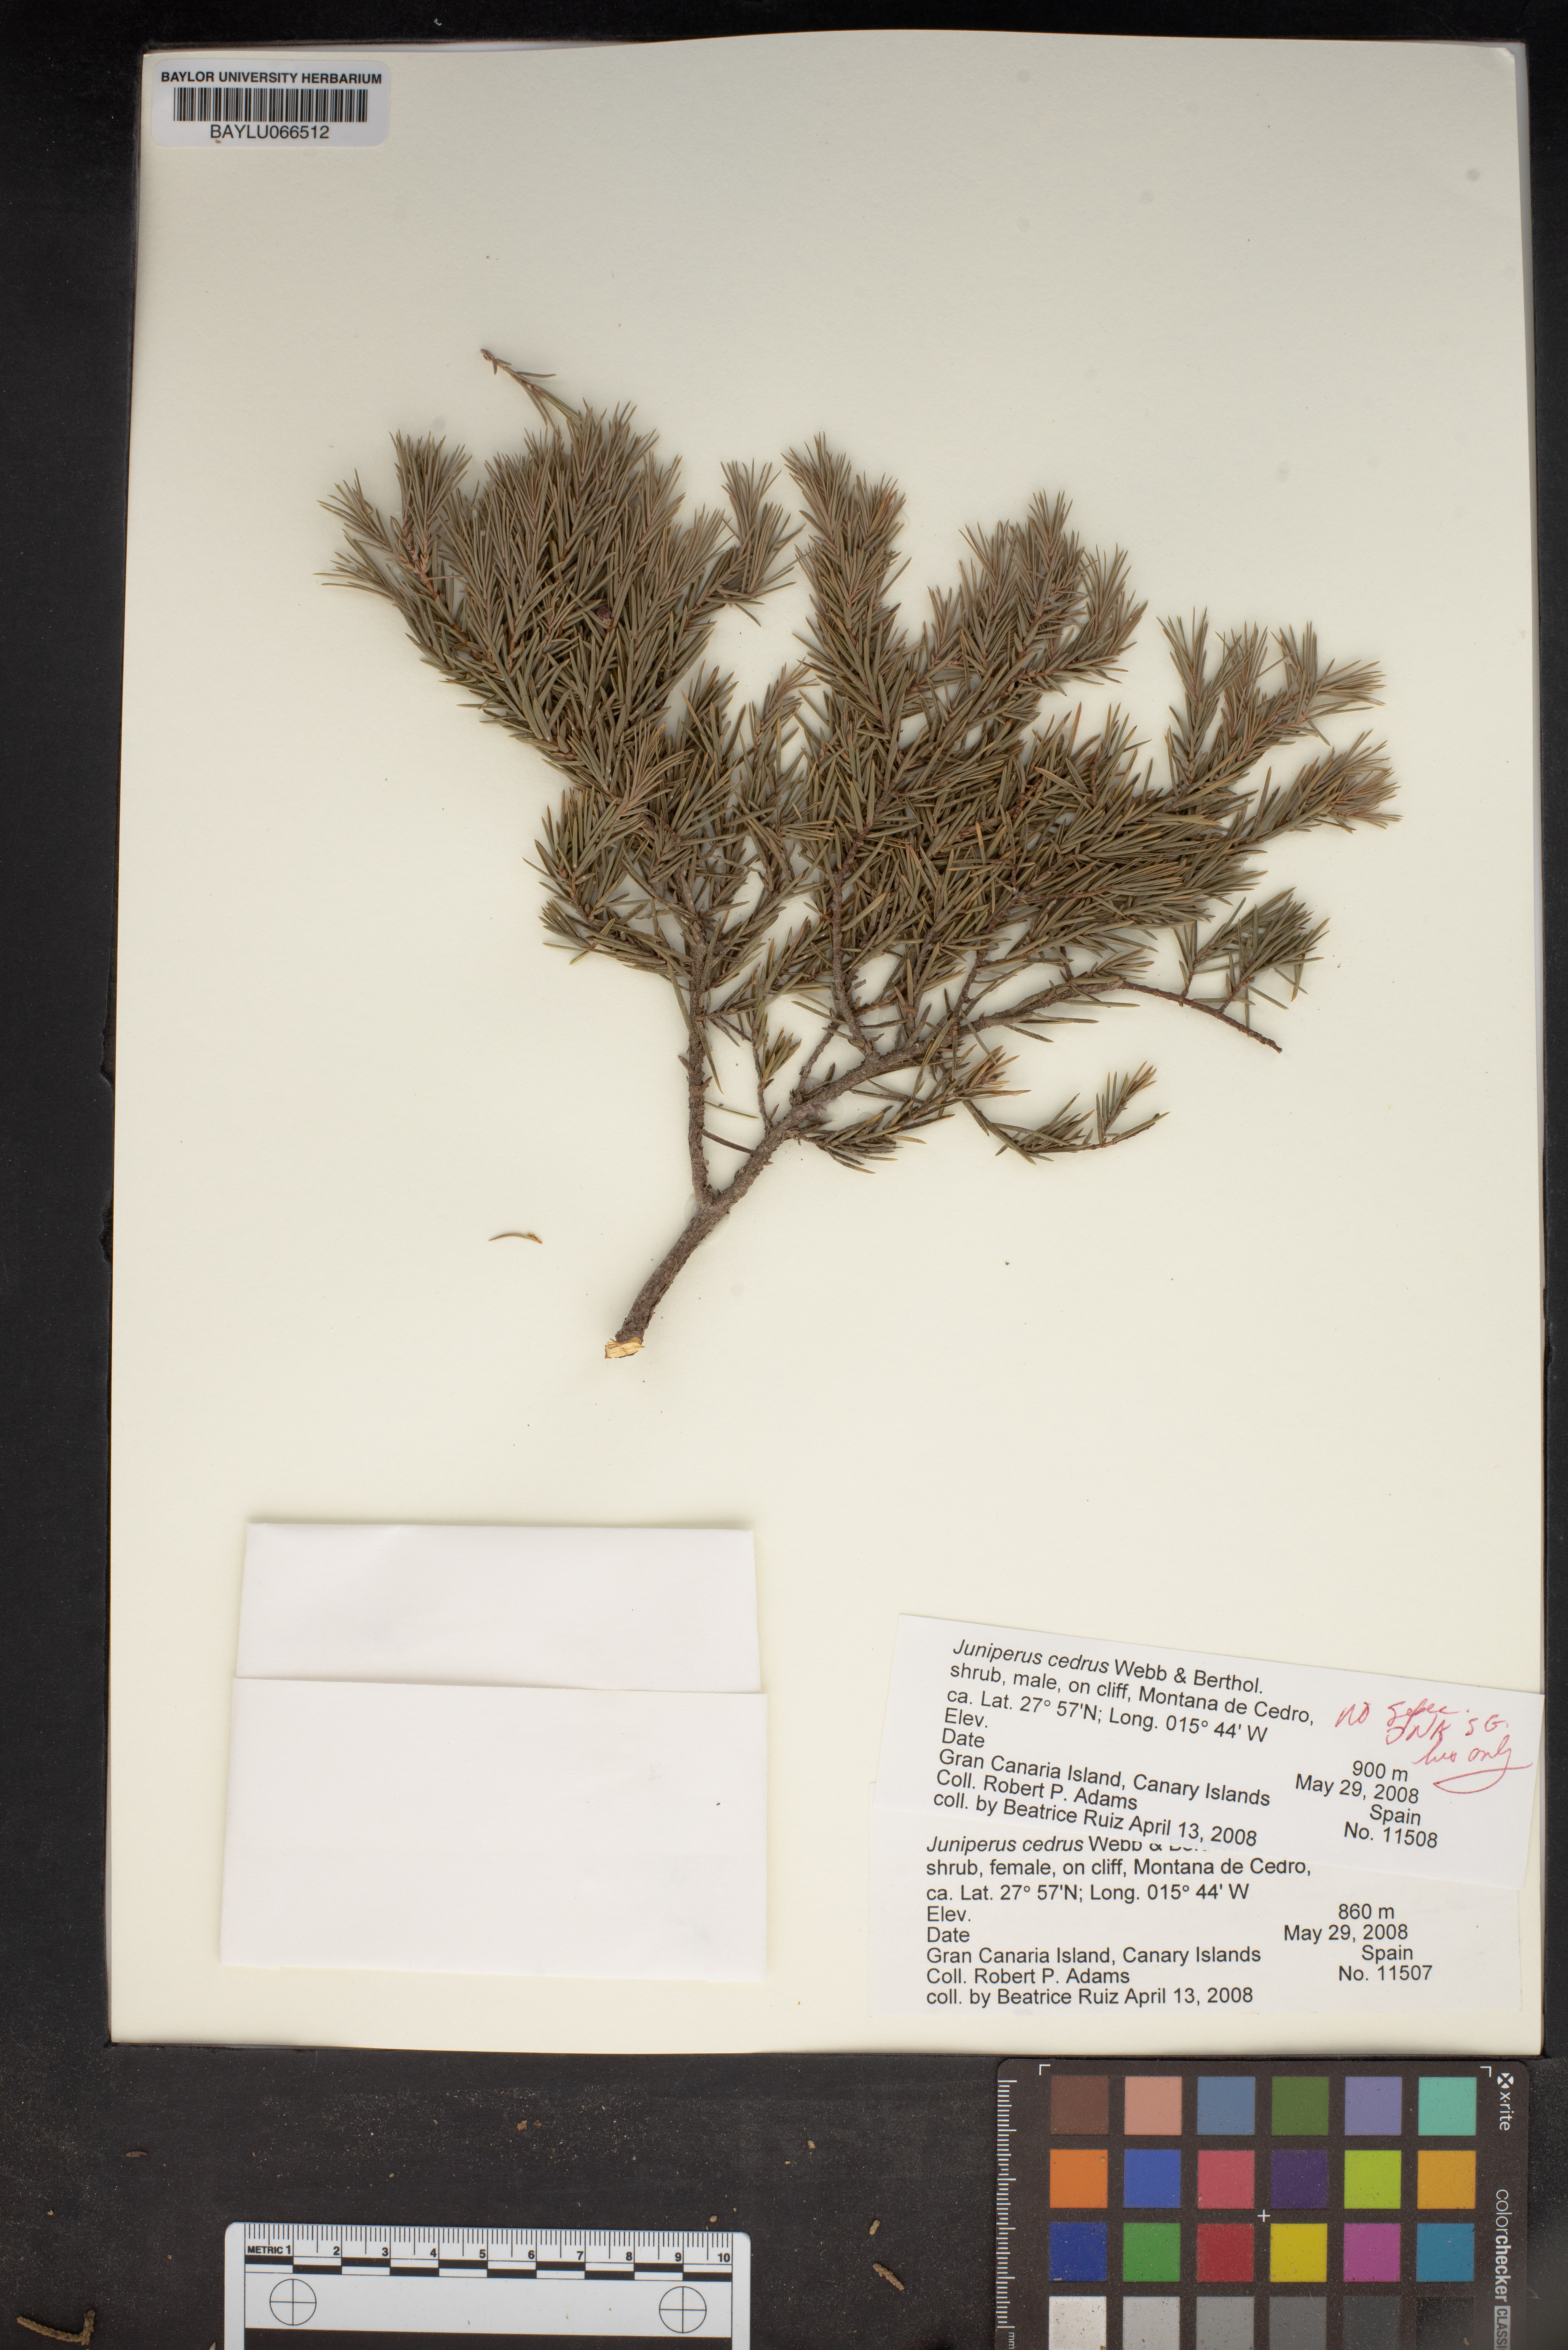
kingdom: Plantae
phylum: Tracheophyta
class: Pinopsida
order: Pinales
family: Cupressaceae
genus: Juniperus
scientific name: Juniperus cedrus
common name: Canary islands juniper
